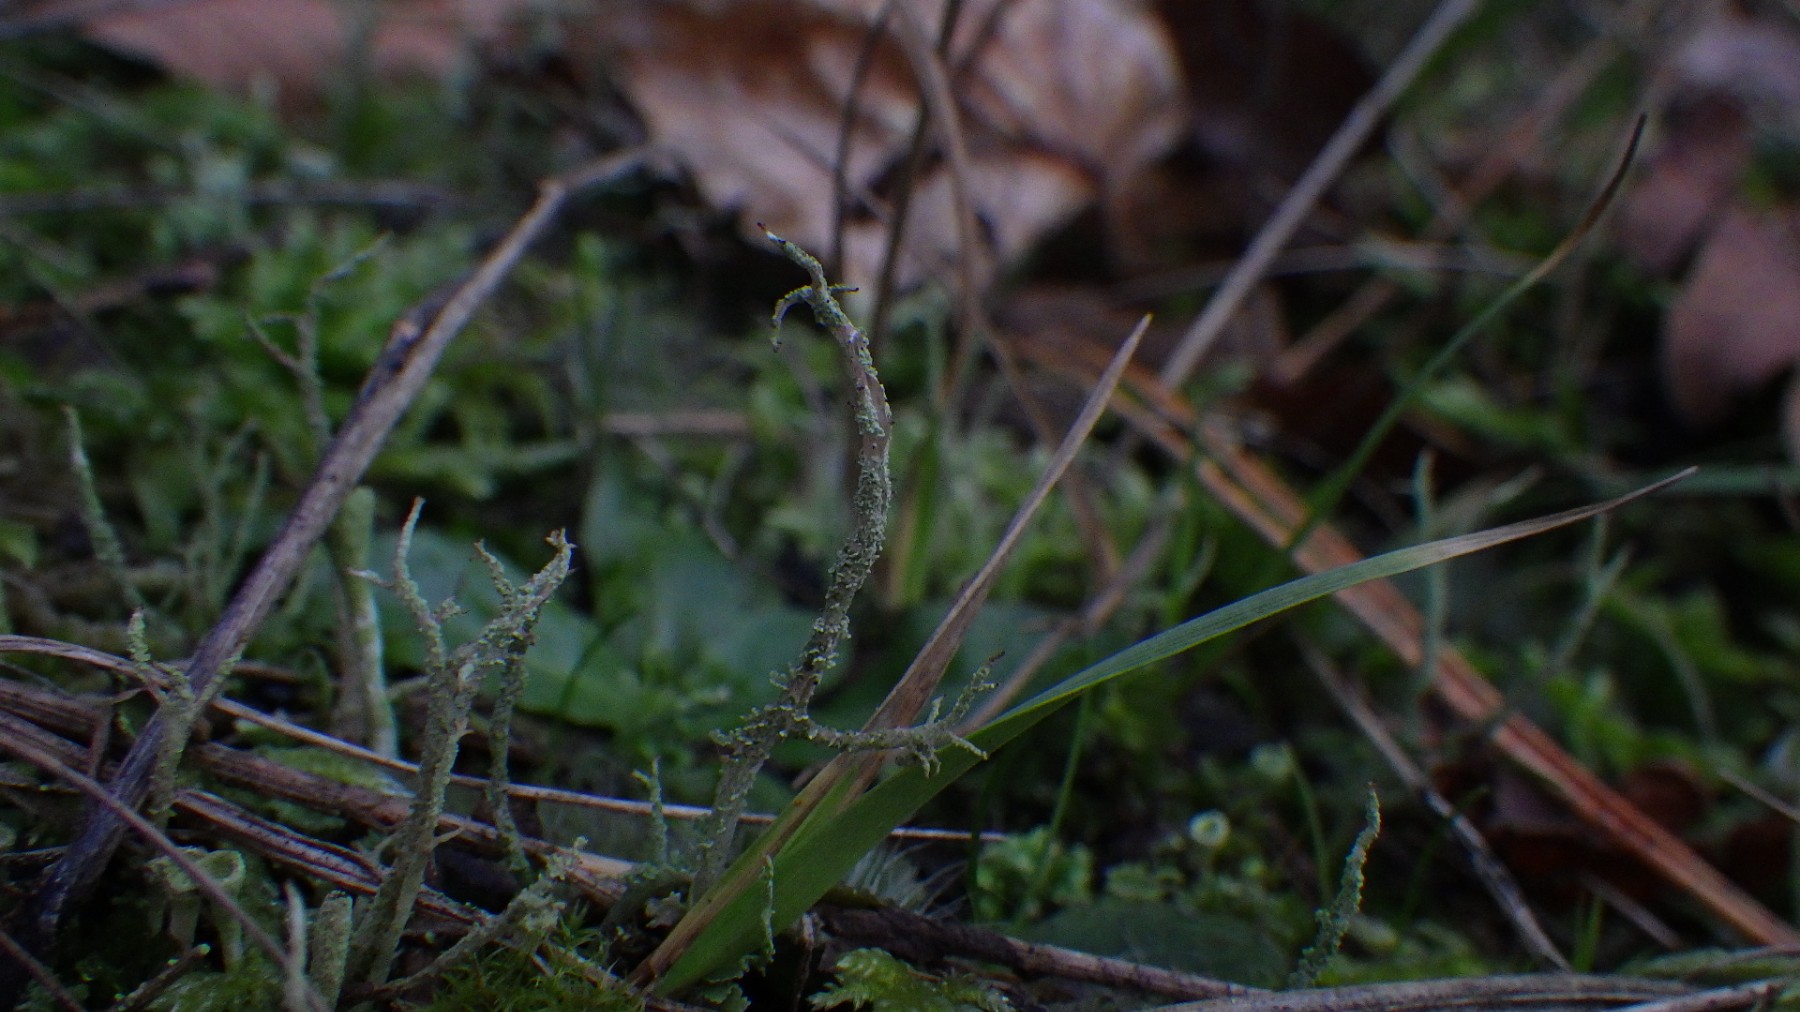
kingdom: Fungi
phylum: Ascomycota
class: Lecanoromycetes
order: Lecanorales
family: Cladoniaceae
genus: Cladonia
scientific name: Cladonia scabriuscula
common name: ru bægerlav
